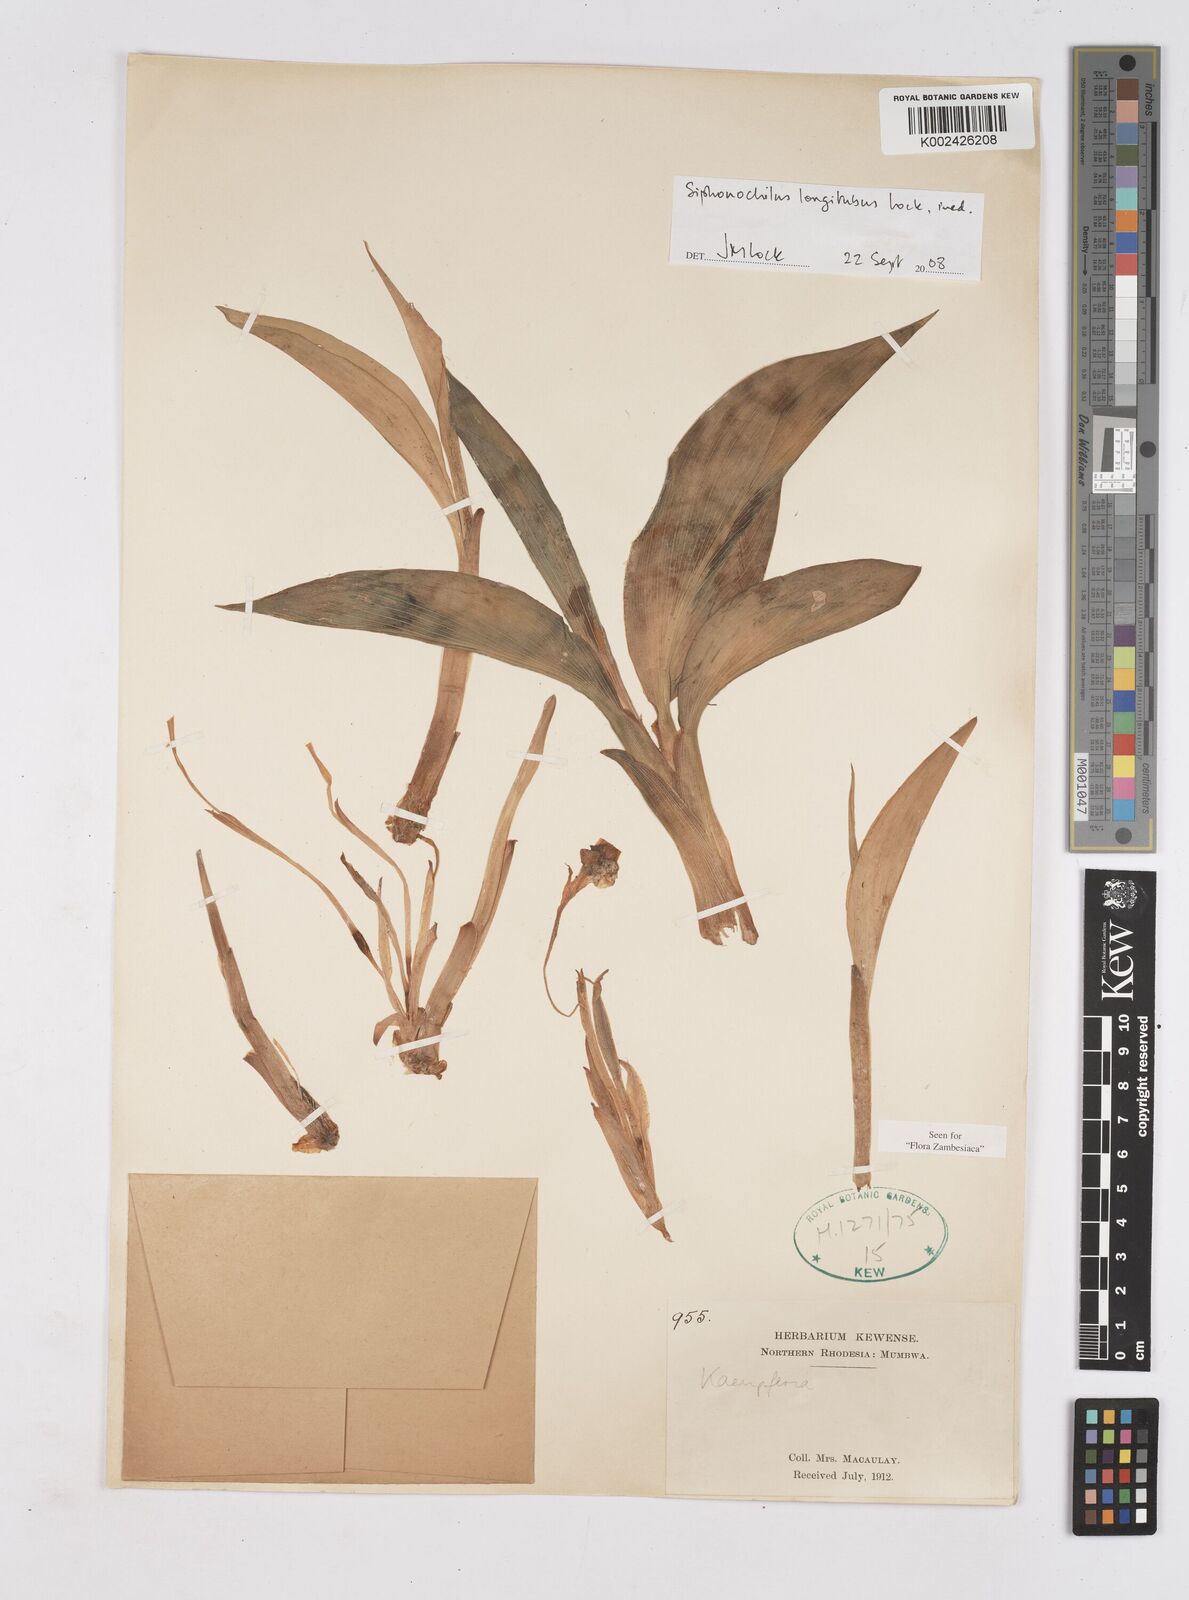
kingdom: Plantae
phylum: Tracheophyta
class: Liliopsida
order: Zingiberales
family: Zingiberaceae
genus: Siphonochilus
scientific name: Siphonochilus longitubus
